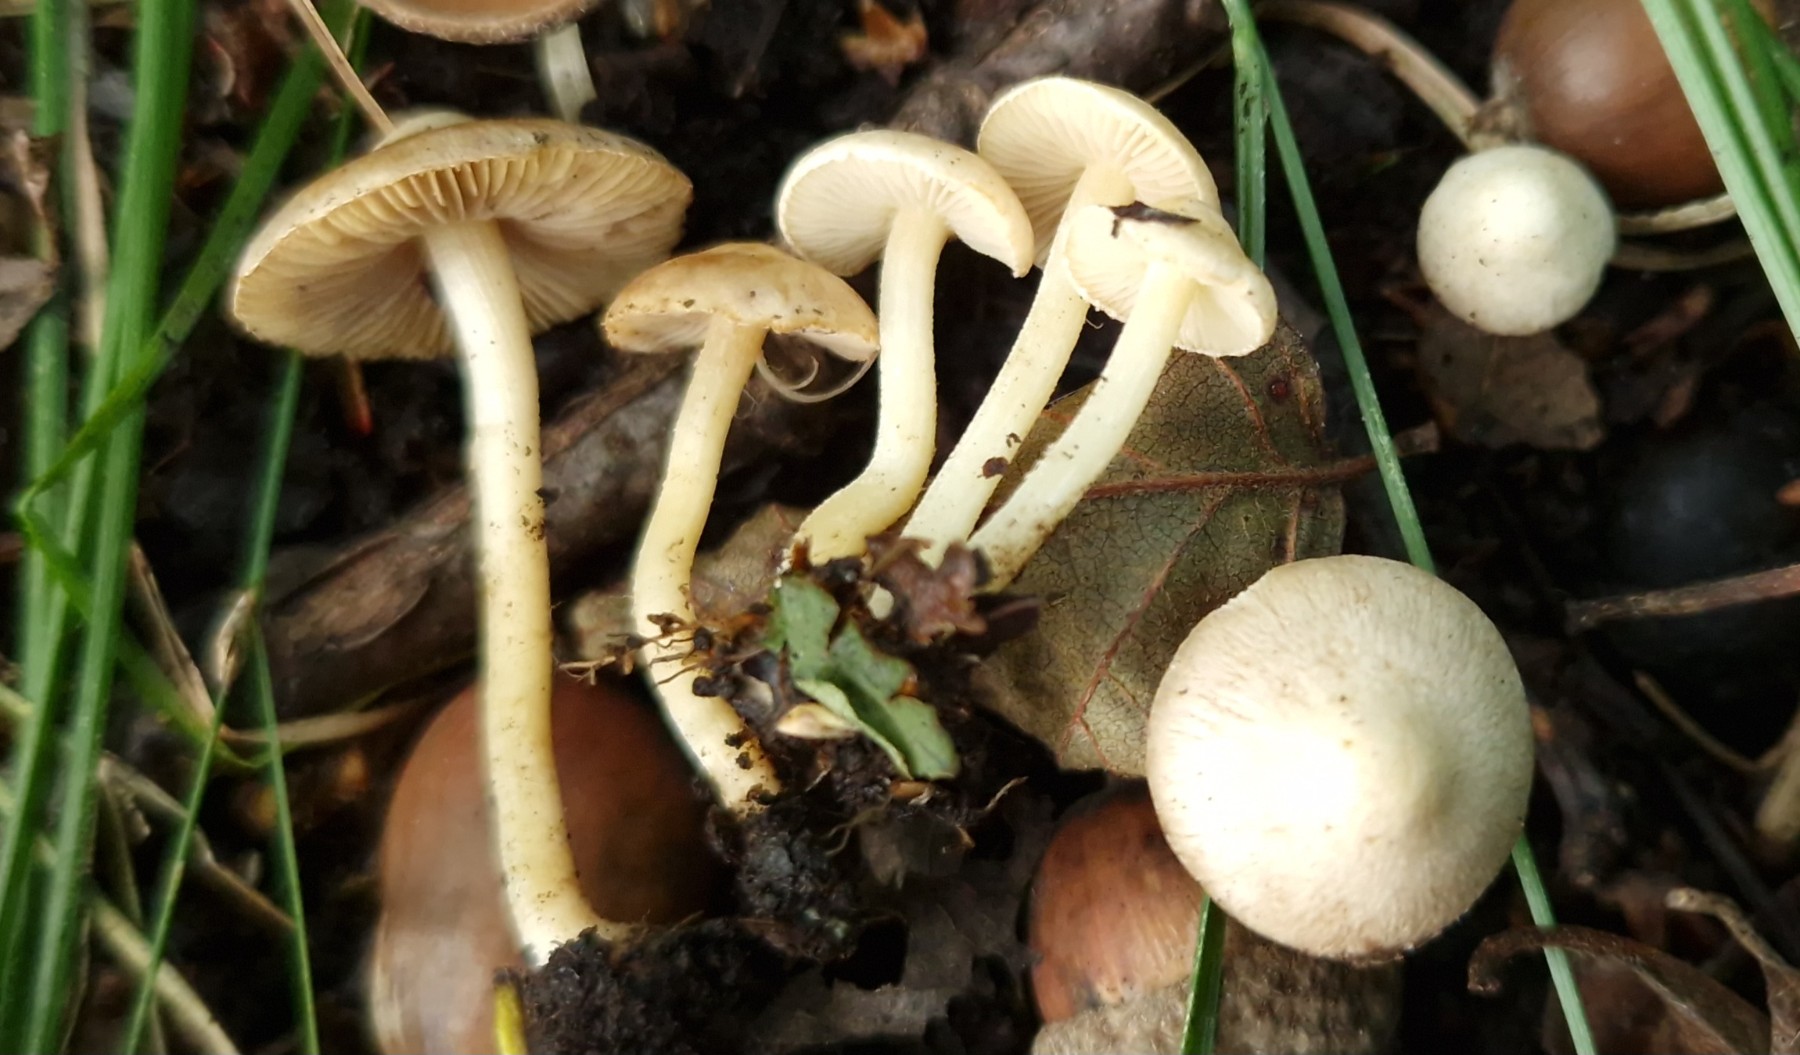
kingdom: Fungi
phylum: Basidiomycota
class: Agaricomycetes
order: Agaricales
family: Inocybaceae
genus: Inocybe
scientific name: Inocybe paludinella
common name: mose-trævlhat
